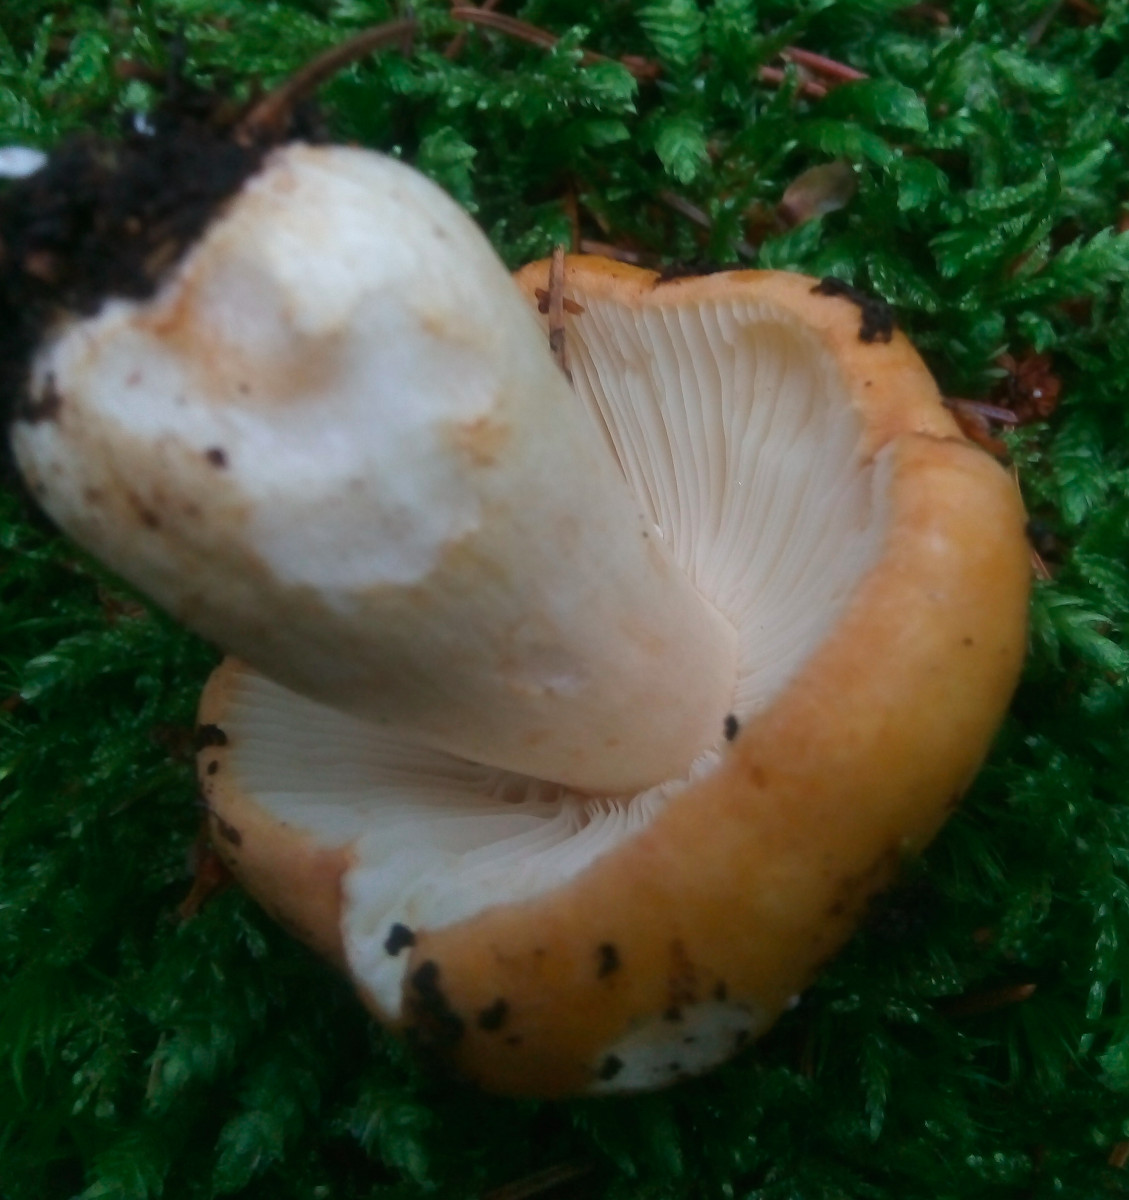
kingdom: Fungi
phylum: Basidiomycota
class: Agaricomycetes
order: Russulales
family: Russulaceae
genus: Russula
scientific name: Russula ochroleuca
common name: okkergul skørhat
